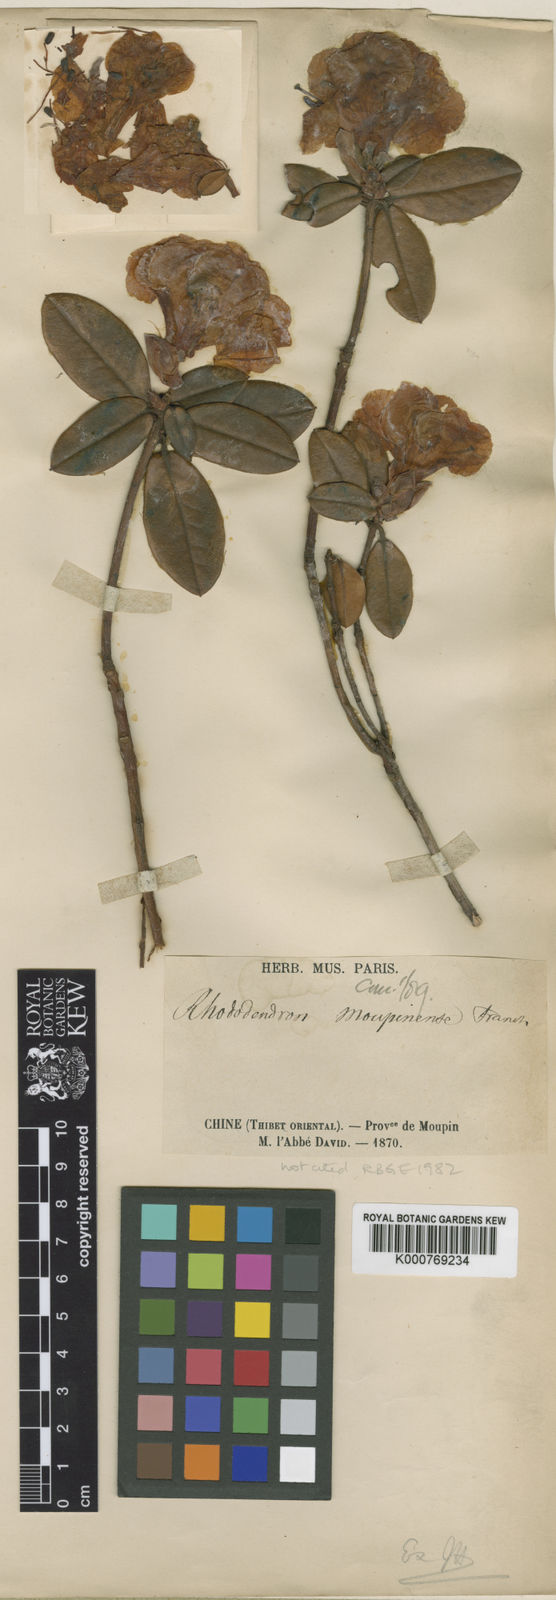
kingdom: Plantae
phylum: Tracheophyta
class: Magnoliopsida
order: Ericales
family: Ericaceae
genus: Rhododendron
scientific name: Rhododendron moupinense
